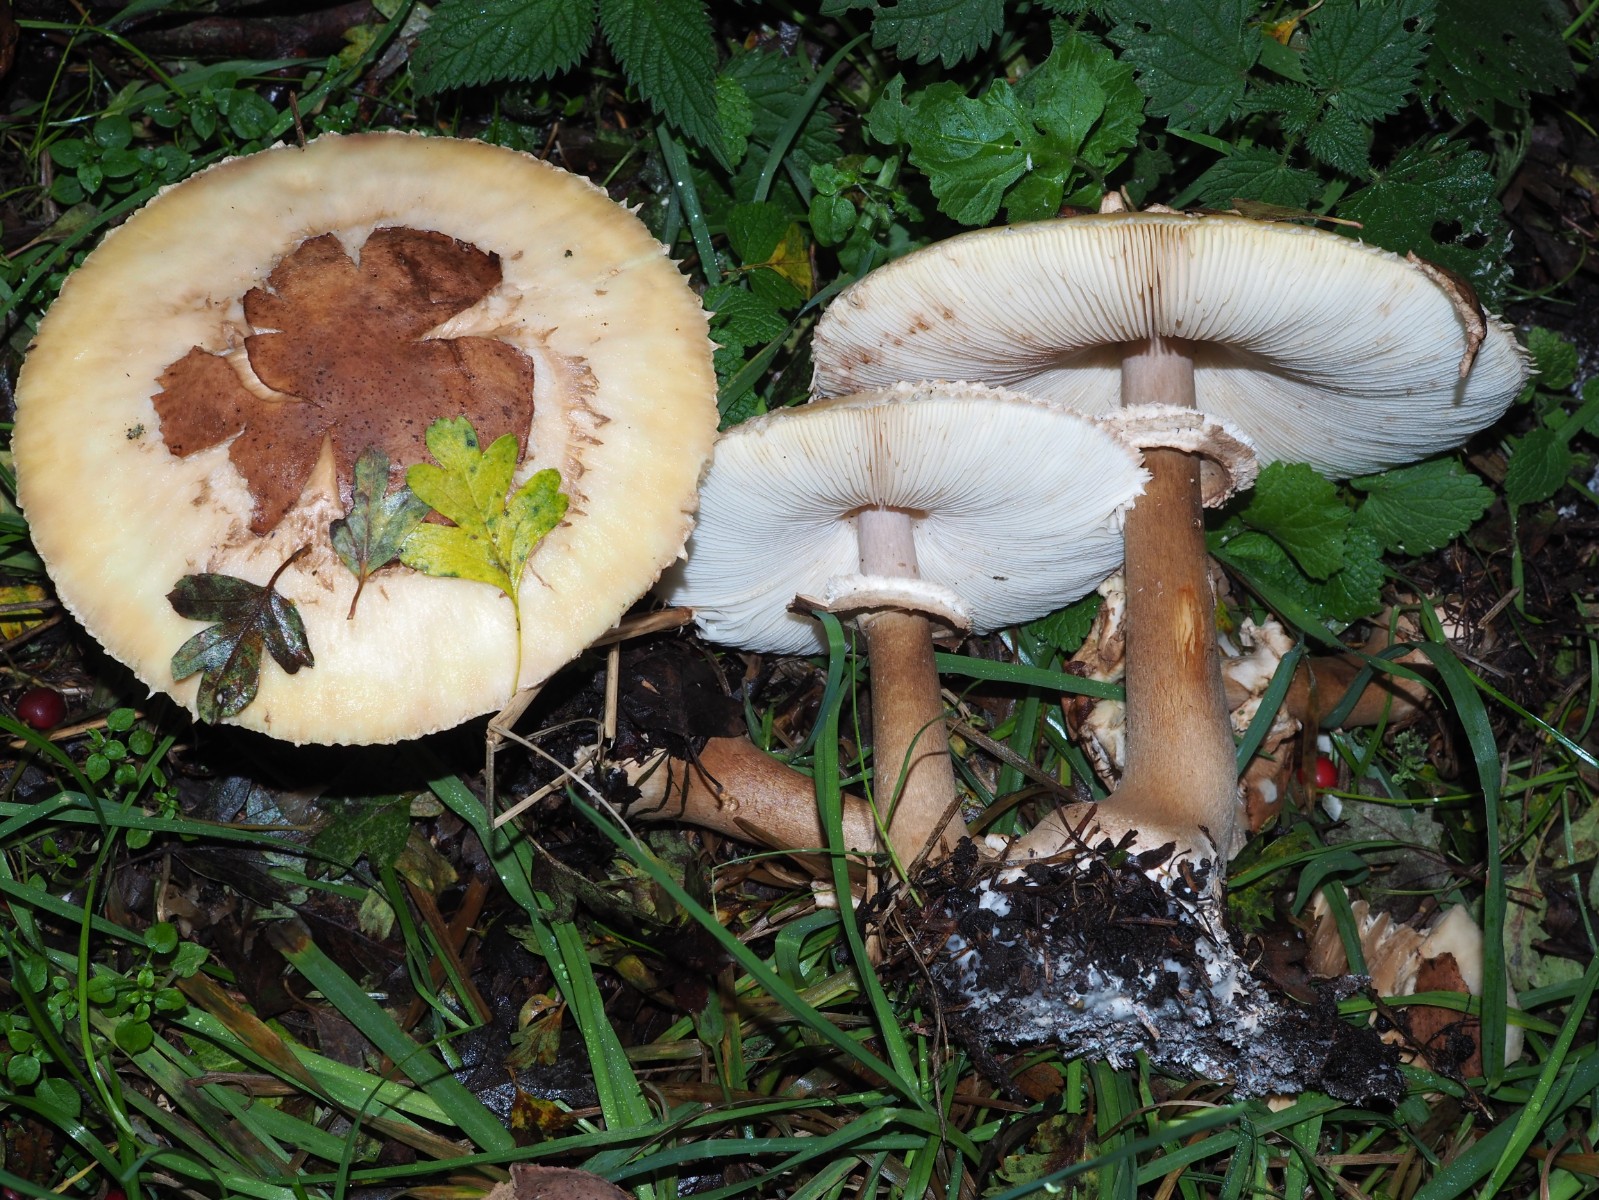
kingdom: Fungi
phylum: Basidiomycota
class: Agaricomycetes
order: Agaricales
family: Agaricaceae
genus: Chlorophyllum
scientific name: Chlorophyllum brunneum
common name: giftig rabarberhat
